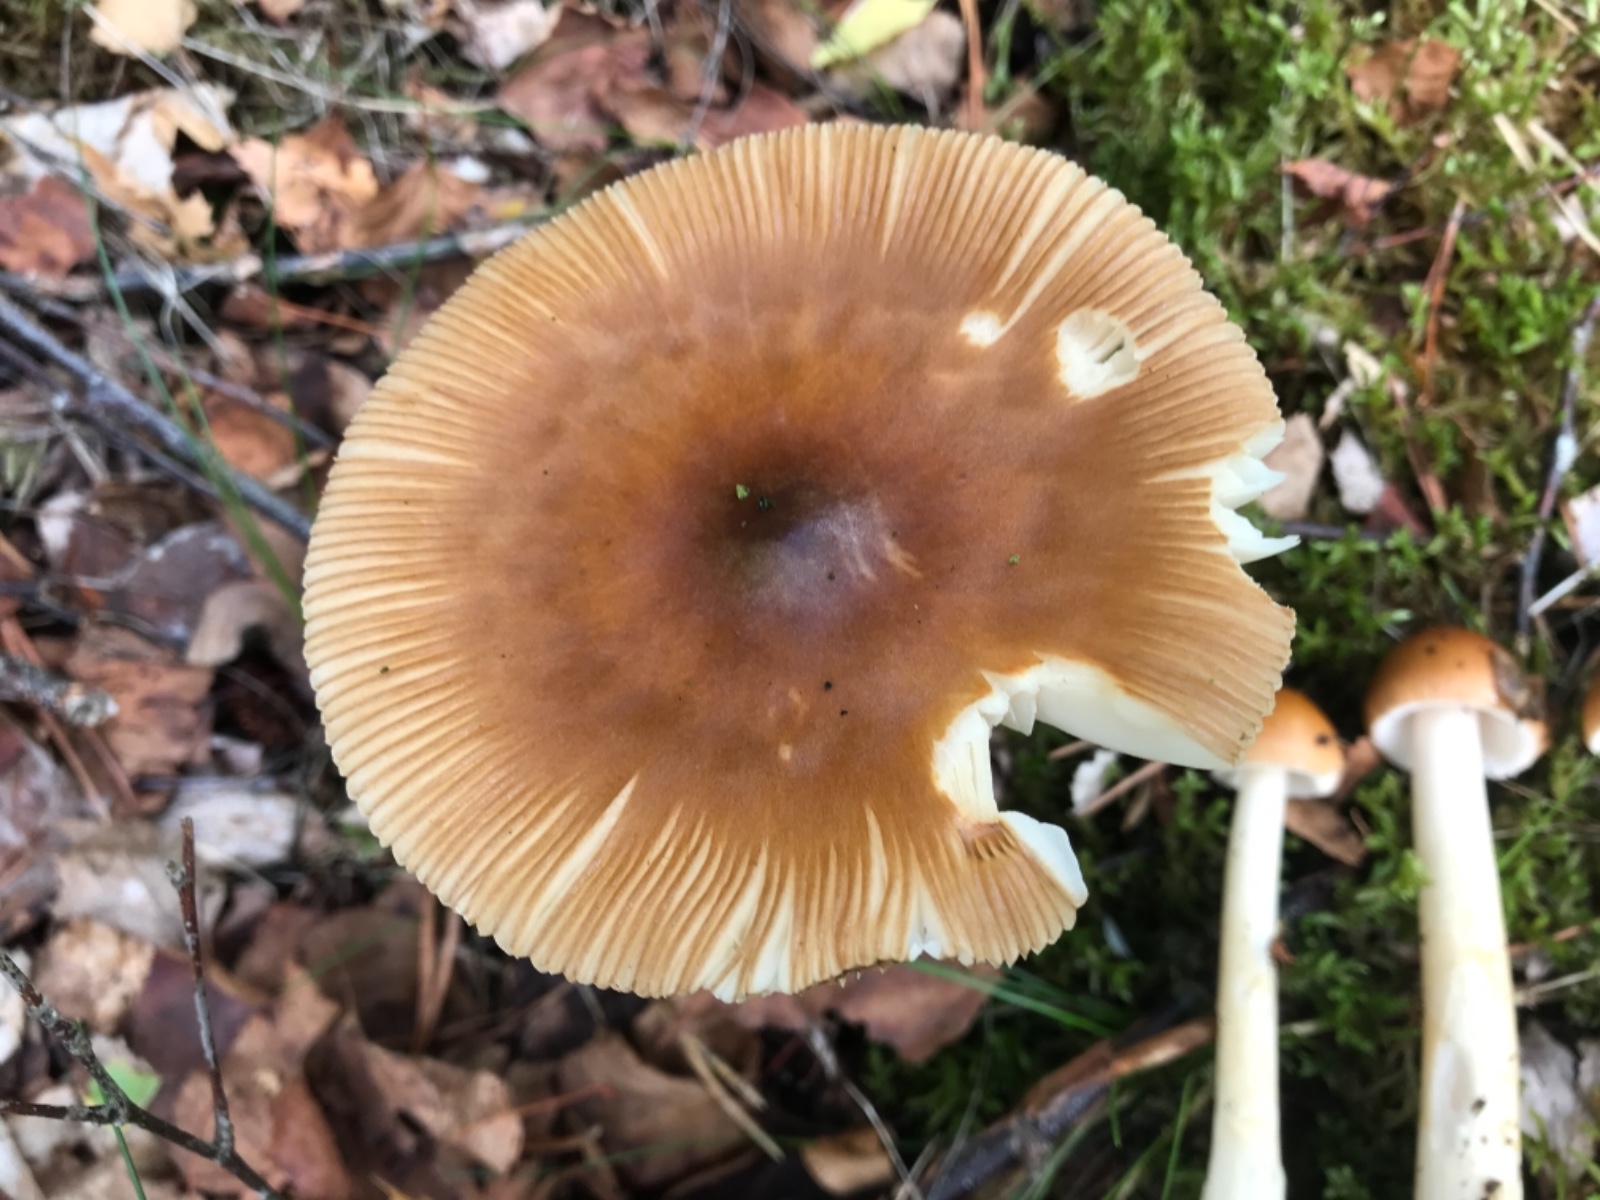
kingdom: Fungi
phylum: Basidiomycota
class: Agaricomycetes
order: Agaricales
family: Amanitaceae
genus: Amanita
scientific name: Amanita fulva
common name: brun kam-fluesvamp
